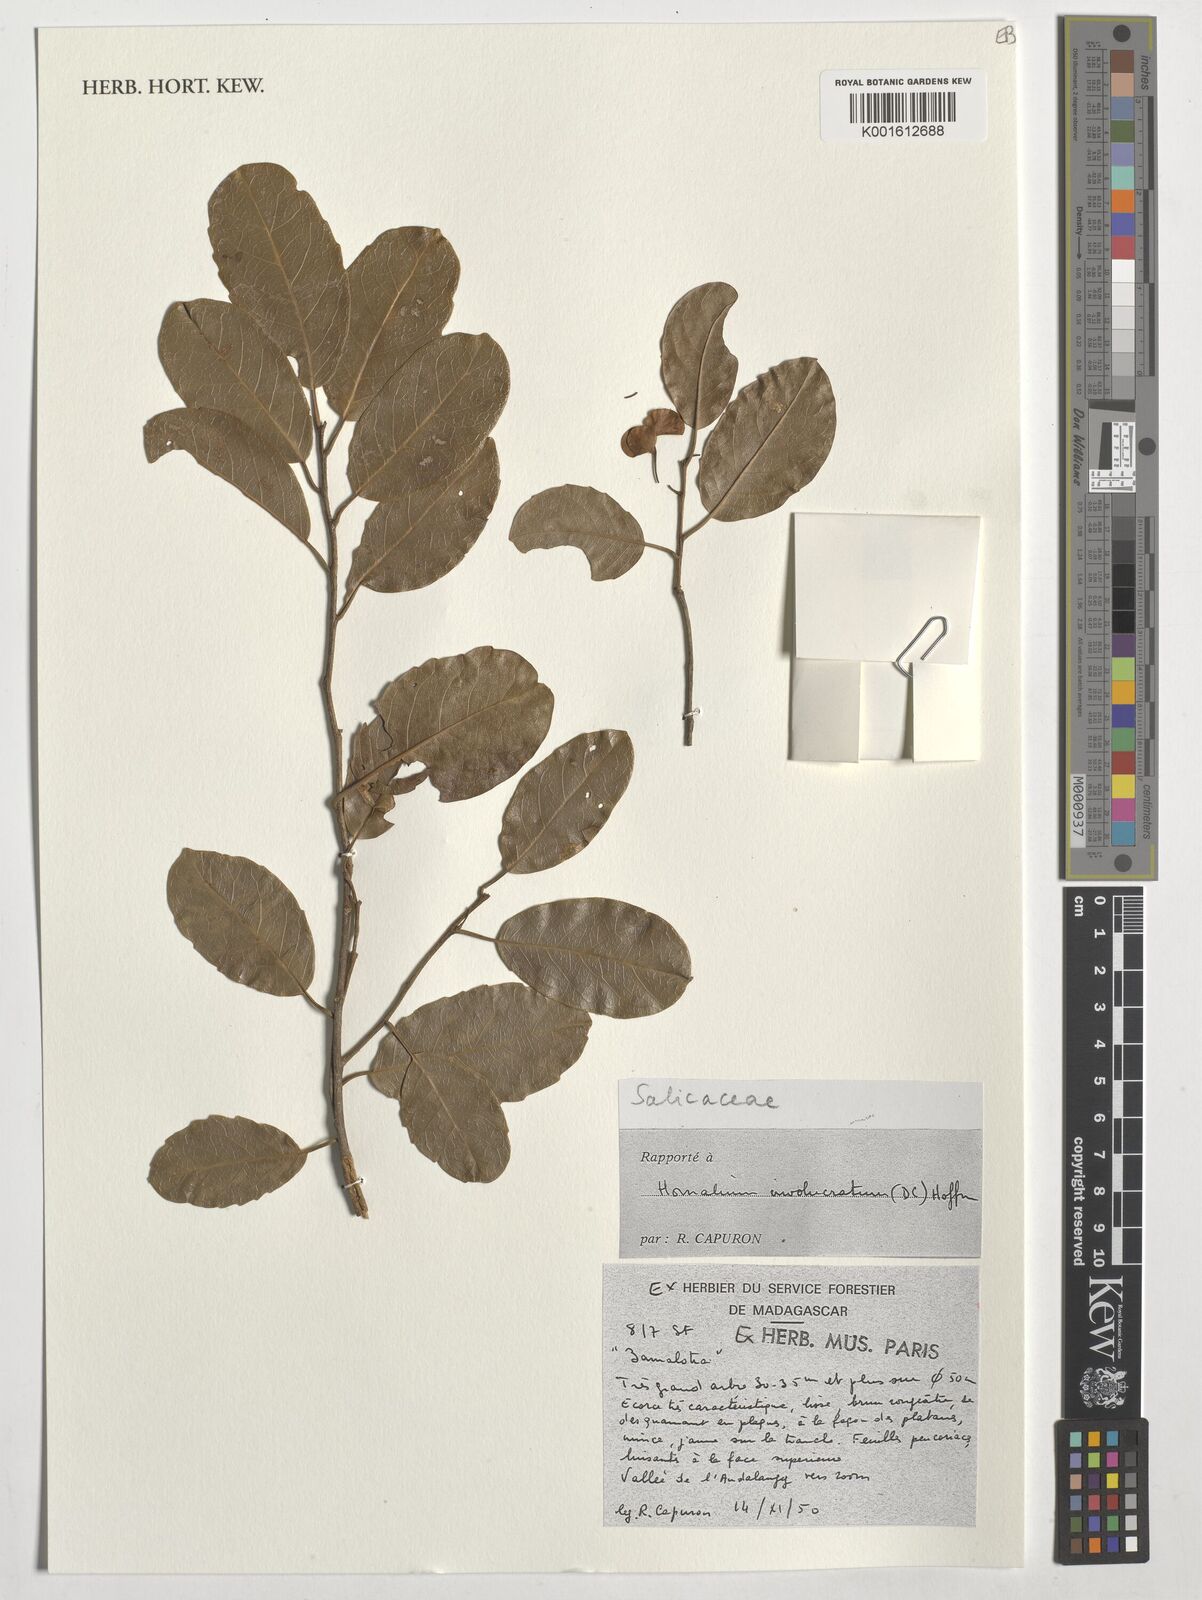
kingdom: Plantae
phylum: Tracheophyta
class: Magnoliopsida
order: Malpighiales
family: Salicaceae
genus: Homalium
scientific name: Homalium involucratum
